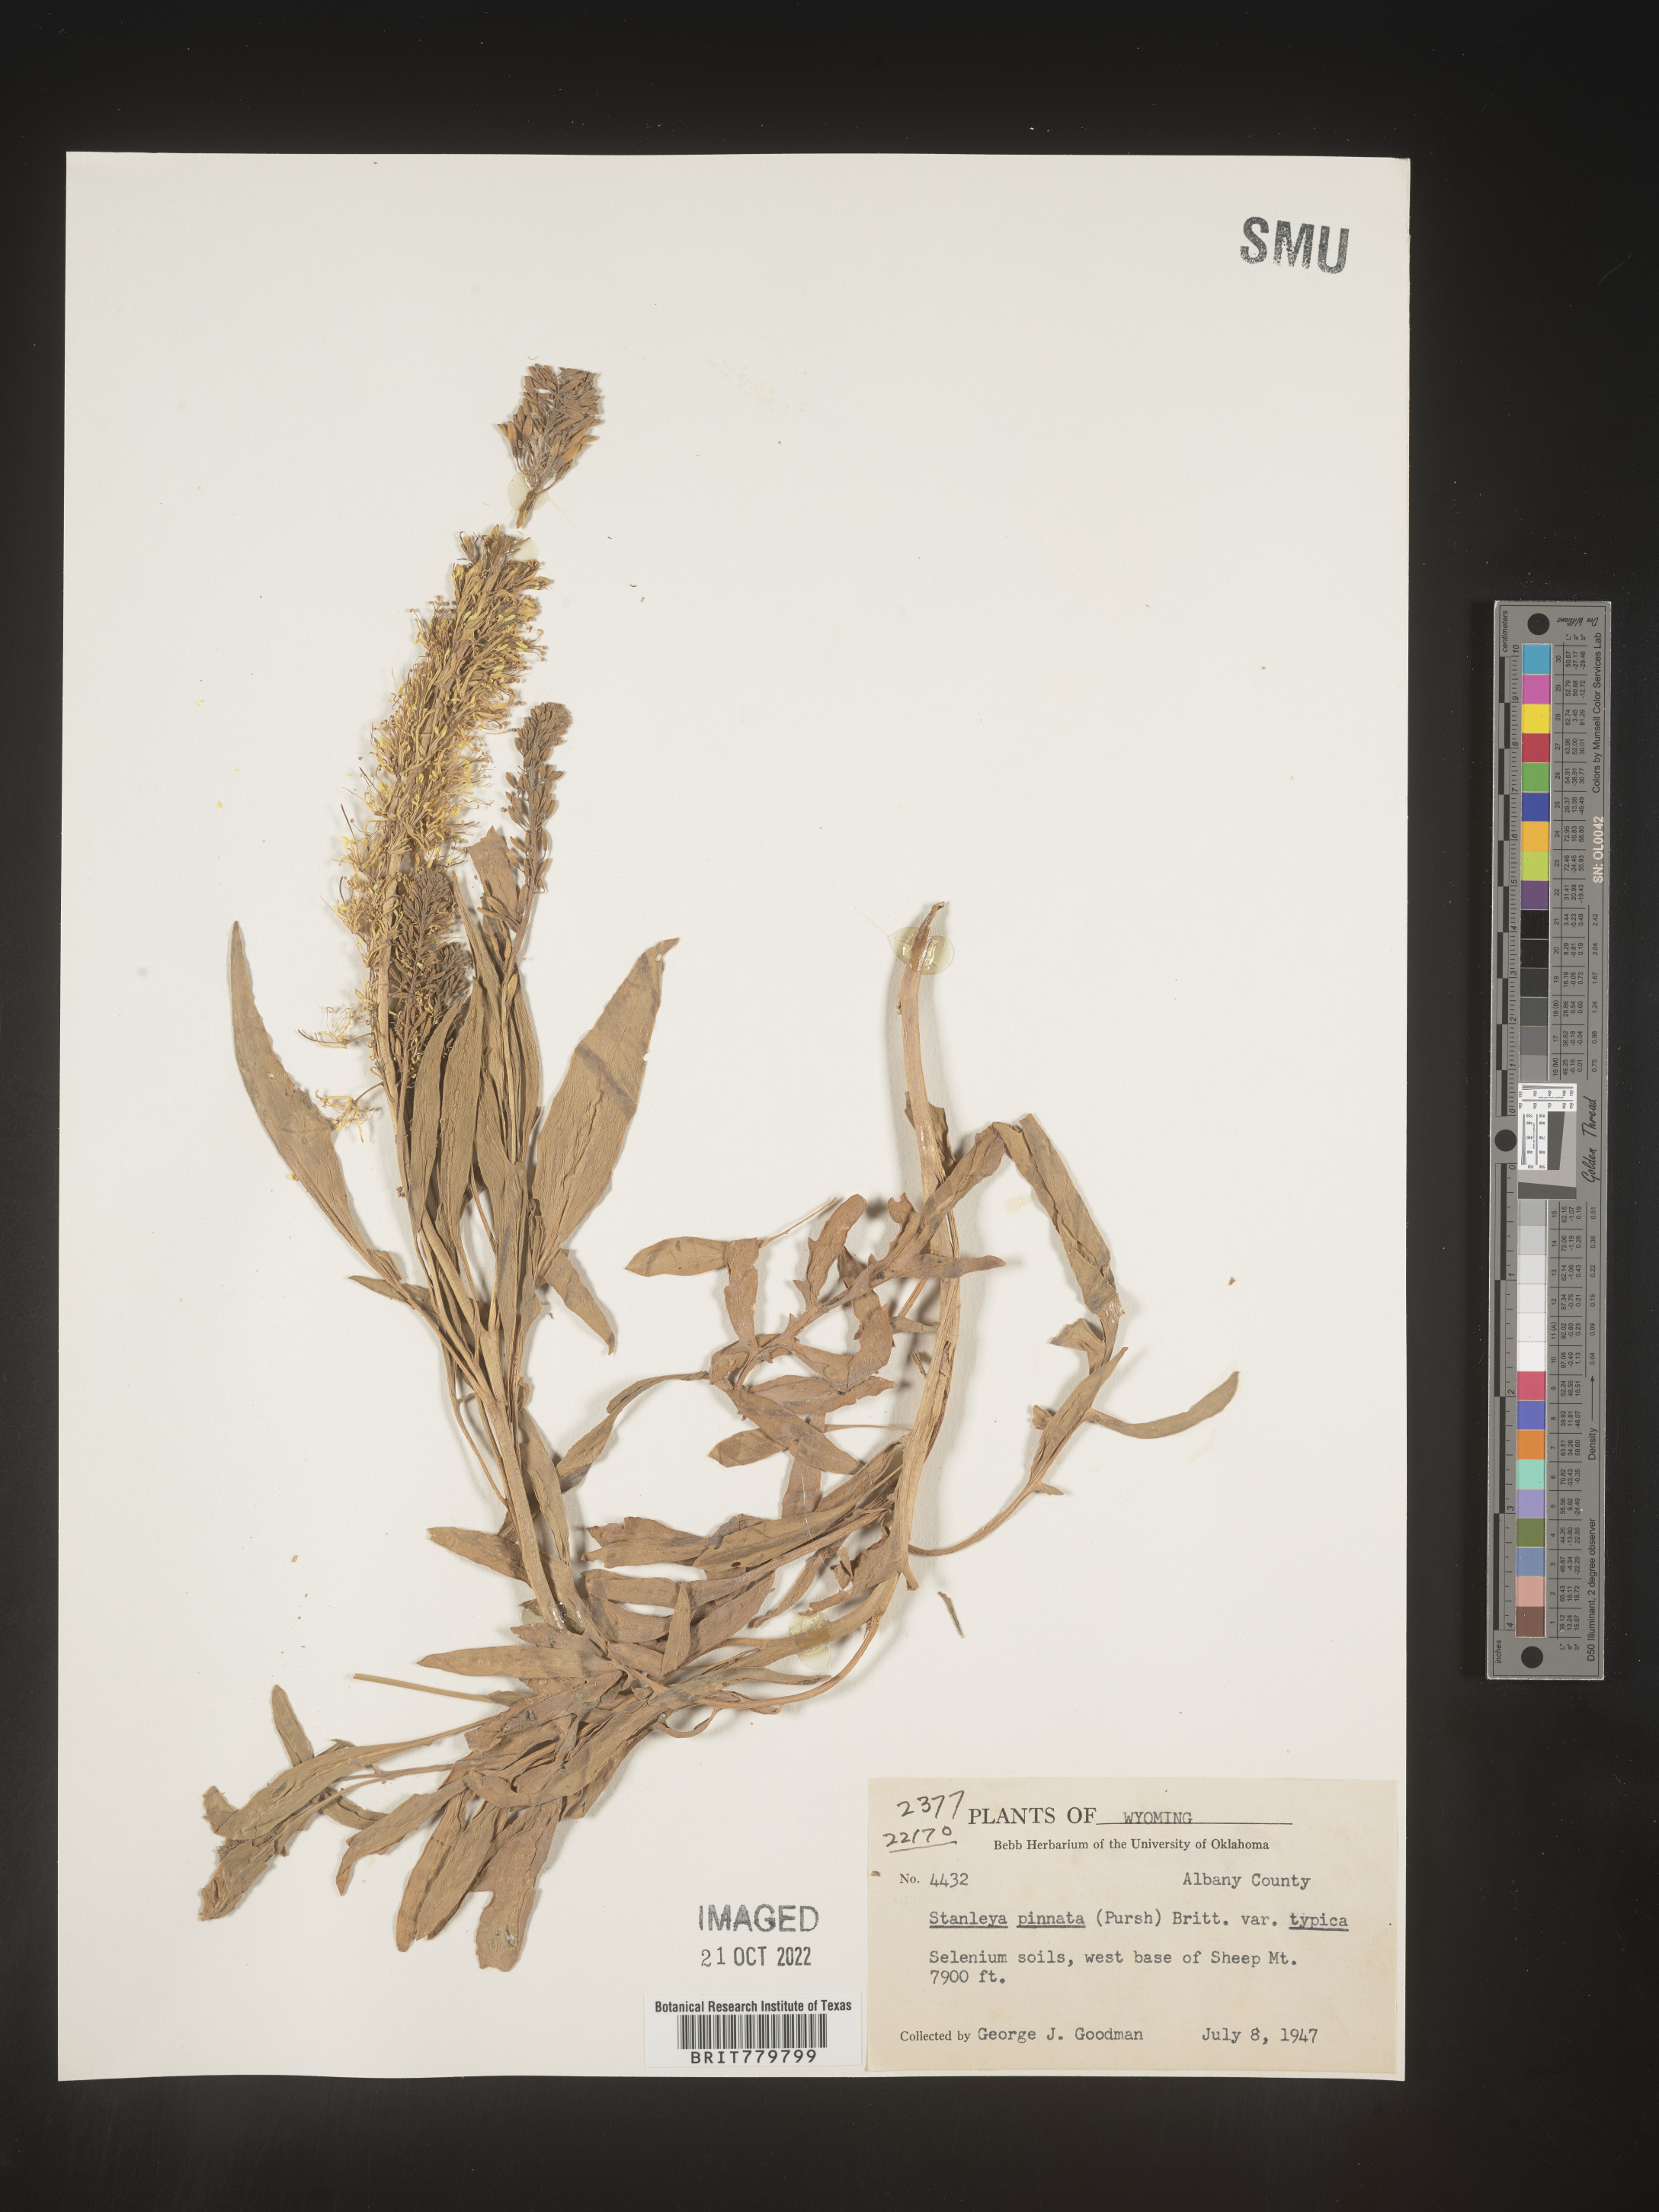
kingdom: Plantae
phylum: Tracheophyta
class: Magnoliopsida
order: Brassicales
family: Brassicaceae
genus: Stanleya
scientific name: Stanleya pinnata
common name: Prince's-plume
